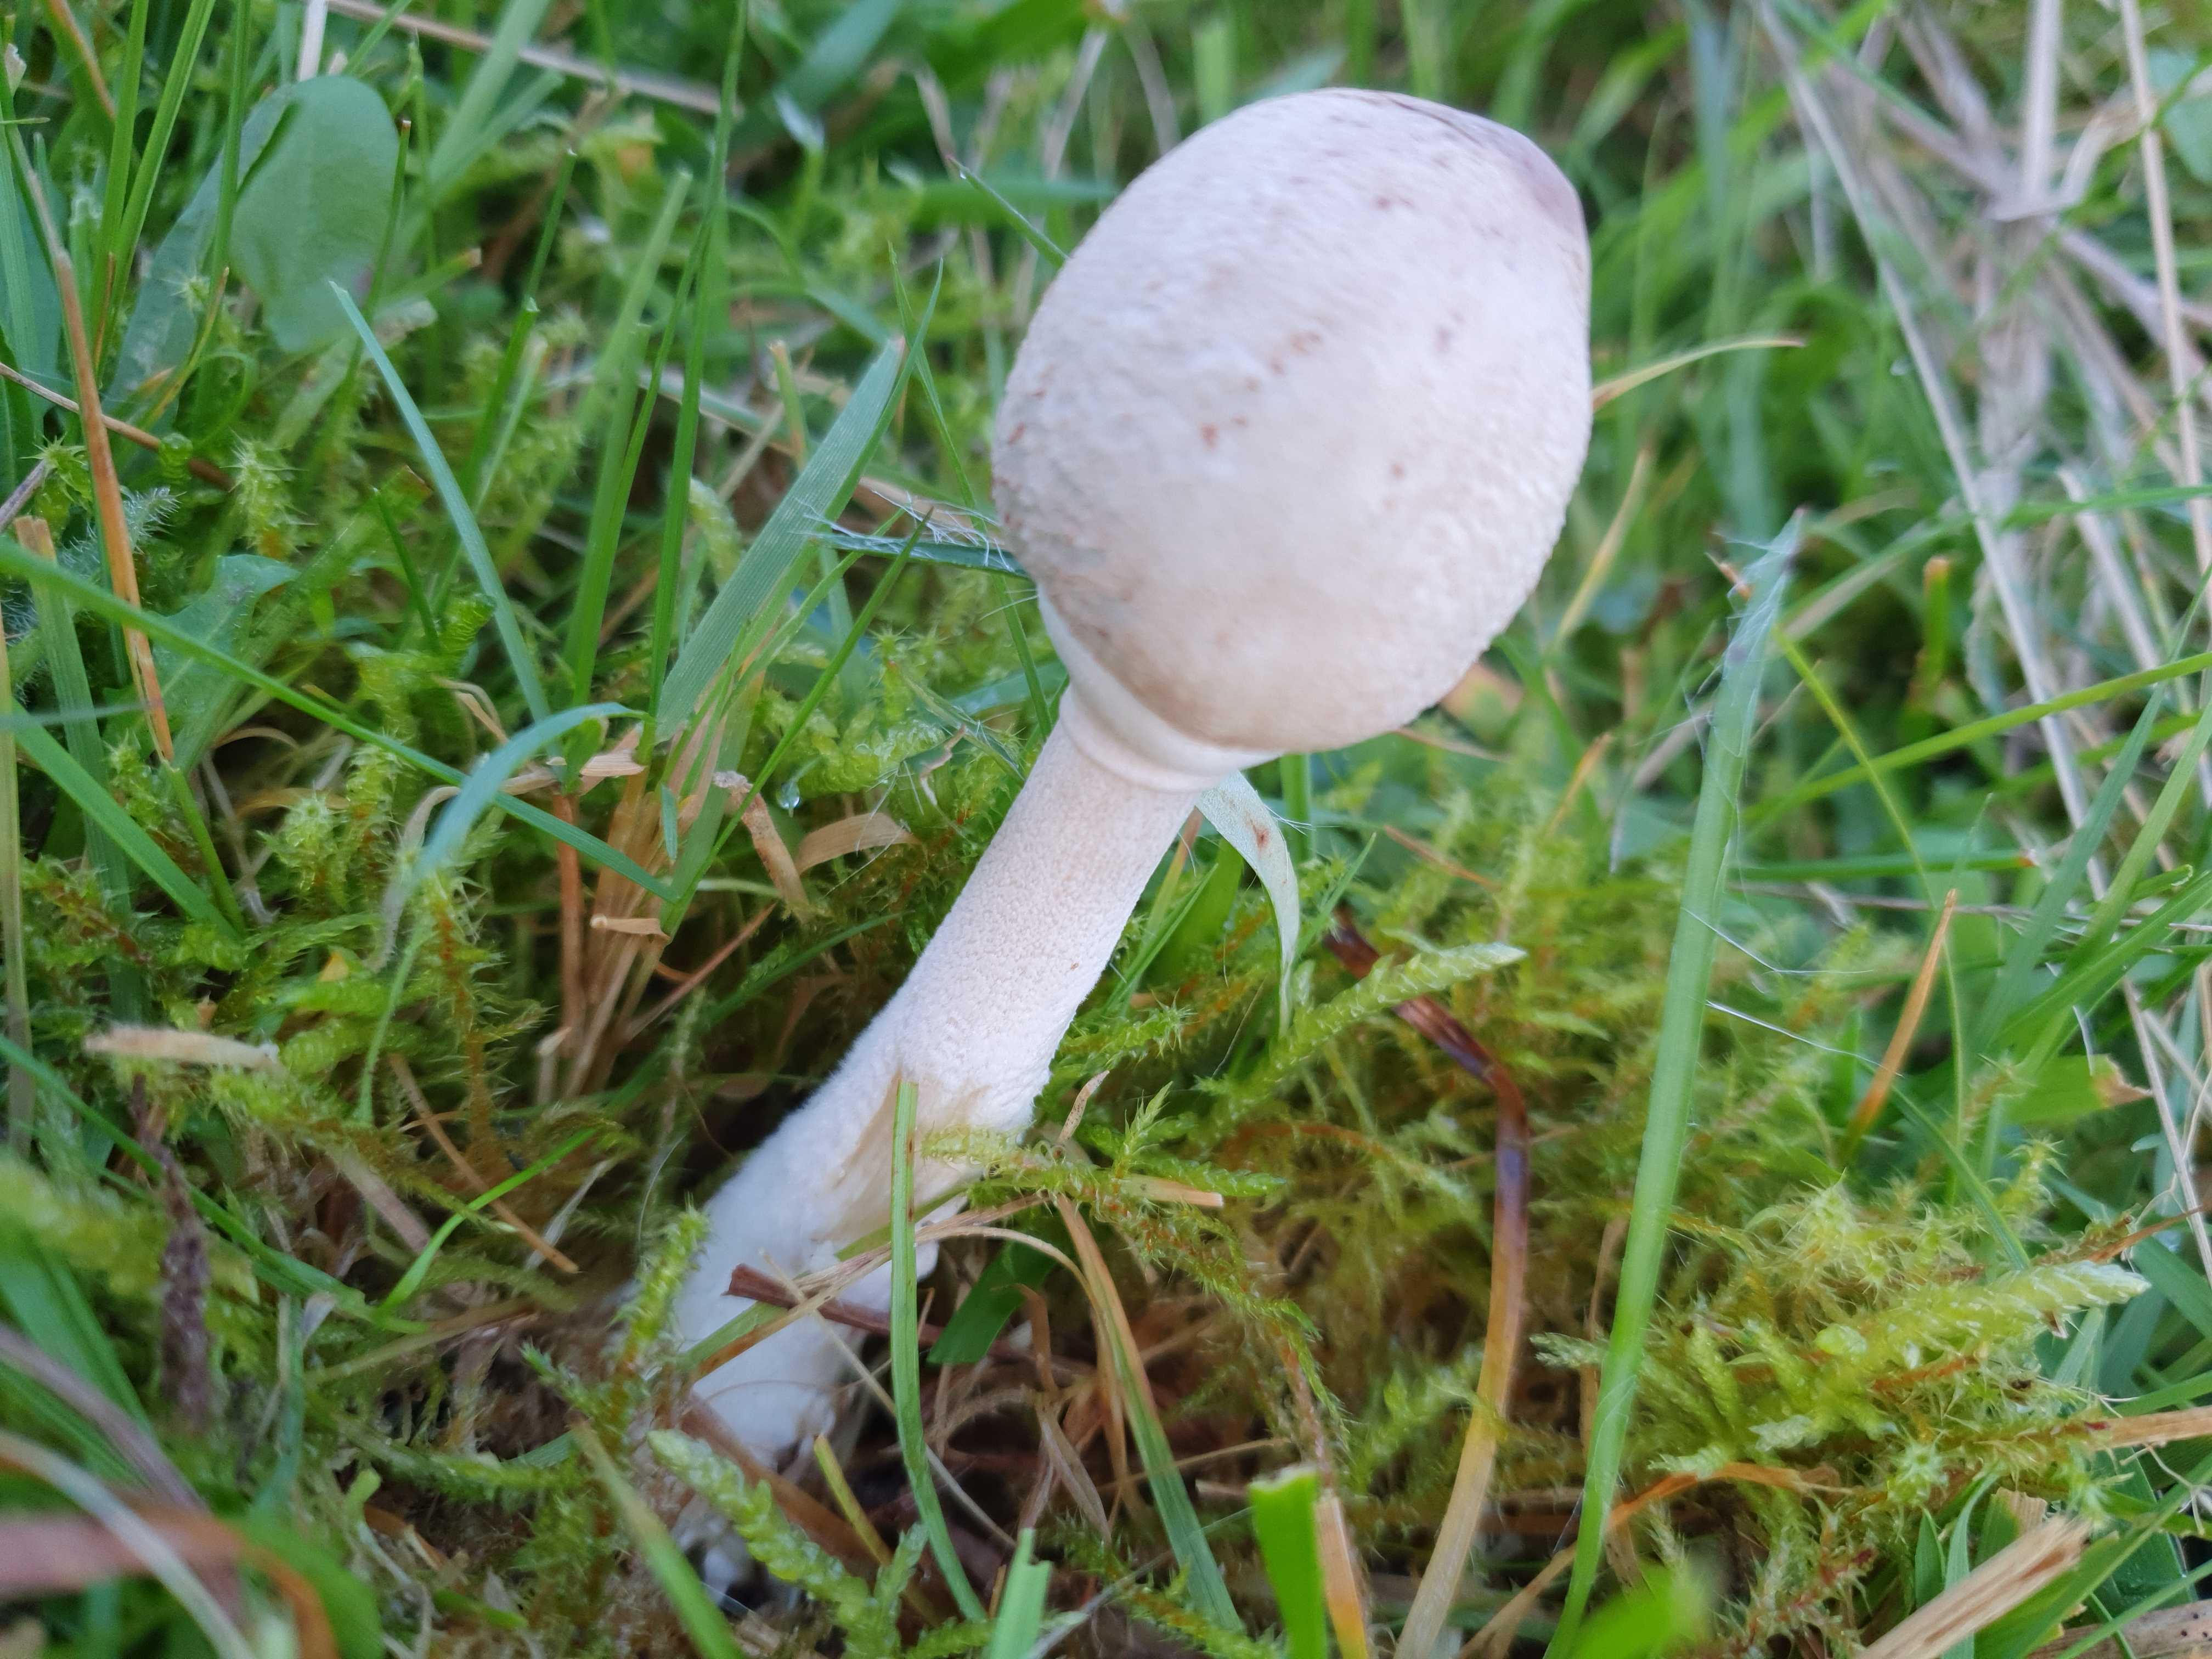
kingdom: Fungi
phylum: Basidiomycota
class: Agaricomycetes
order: Agaricales
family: Agaricaceae
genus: Macrolepiota
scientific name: Macrolepiota excoriata
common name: mark-kæmpeparasolhat
